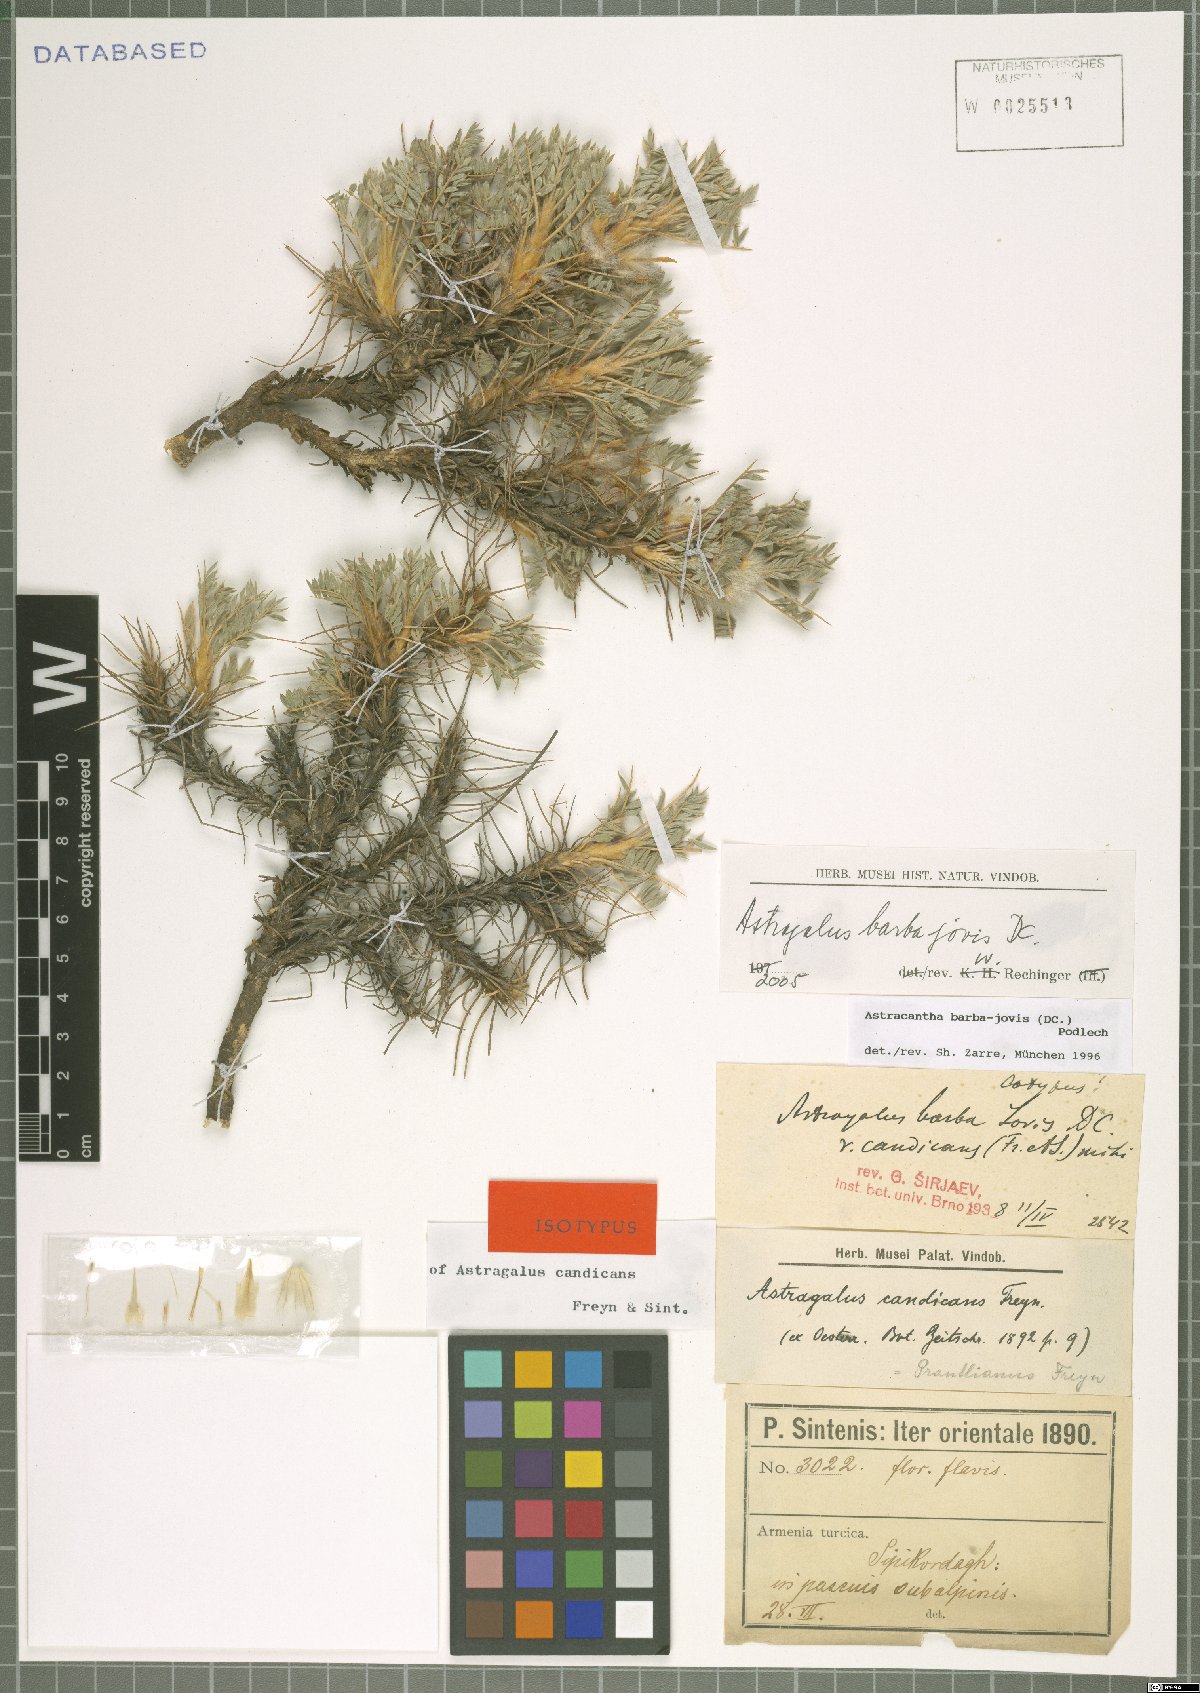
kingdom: Plantae
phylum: Tracheophyta
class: Magnoliopsida
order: Fabales
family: Fabaceae
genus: Astragalus
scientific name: Astragalus barba-jovis
